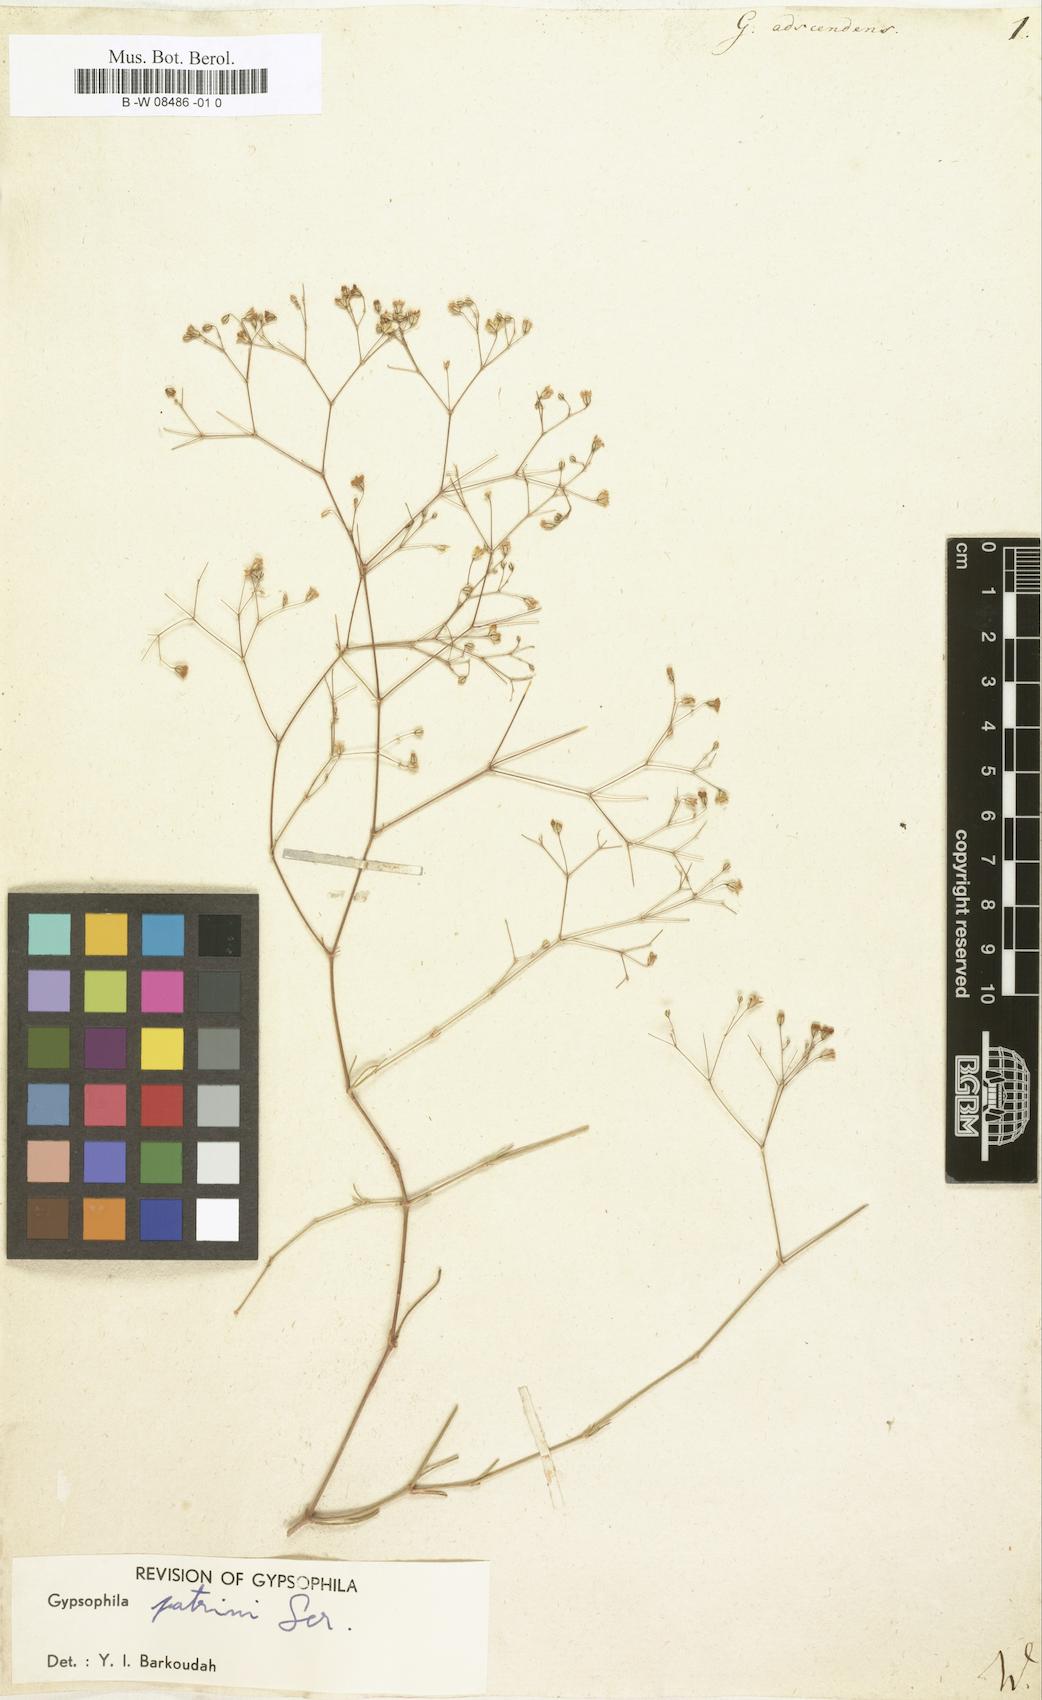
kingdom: Plantae
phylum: Tracheophyta
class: Magnoliopsida
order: Caryophyllales
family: Caryophyllaceae
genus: Gypsophila
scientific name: Gypsophila repens
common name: Creeping baby's-breath
